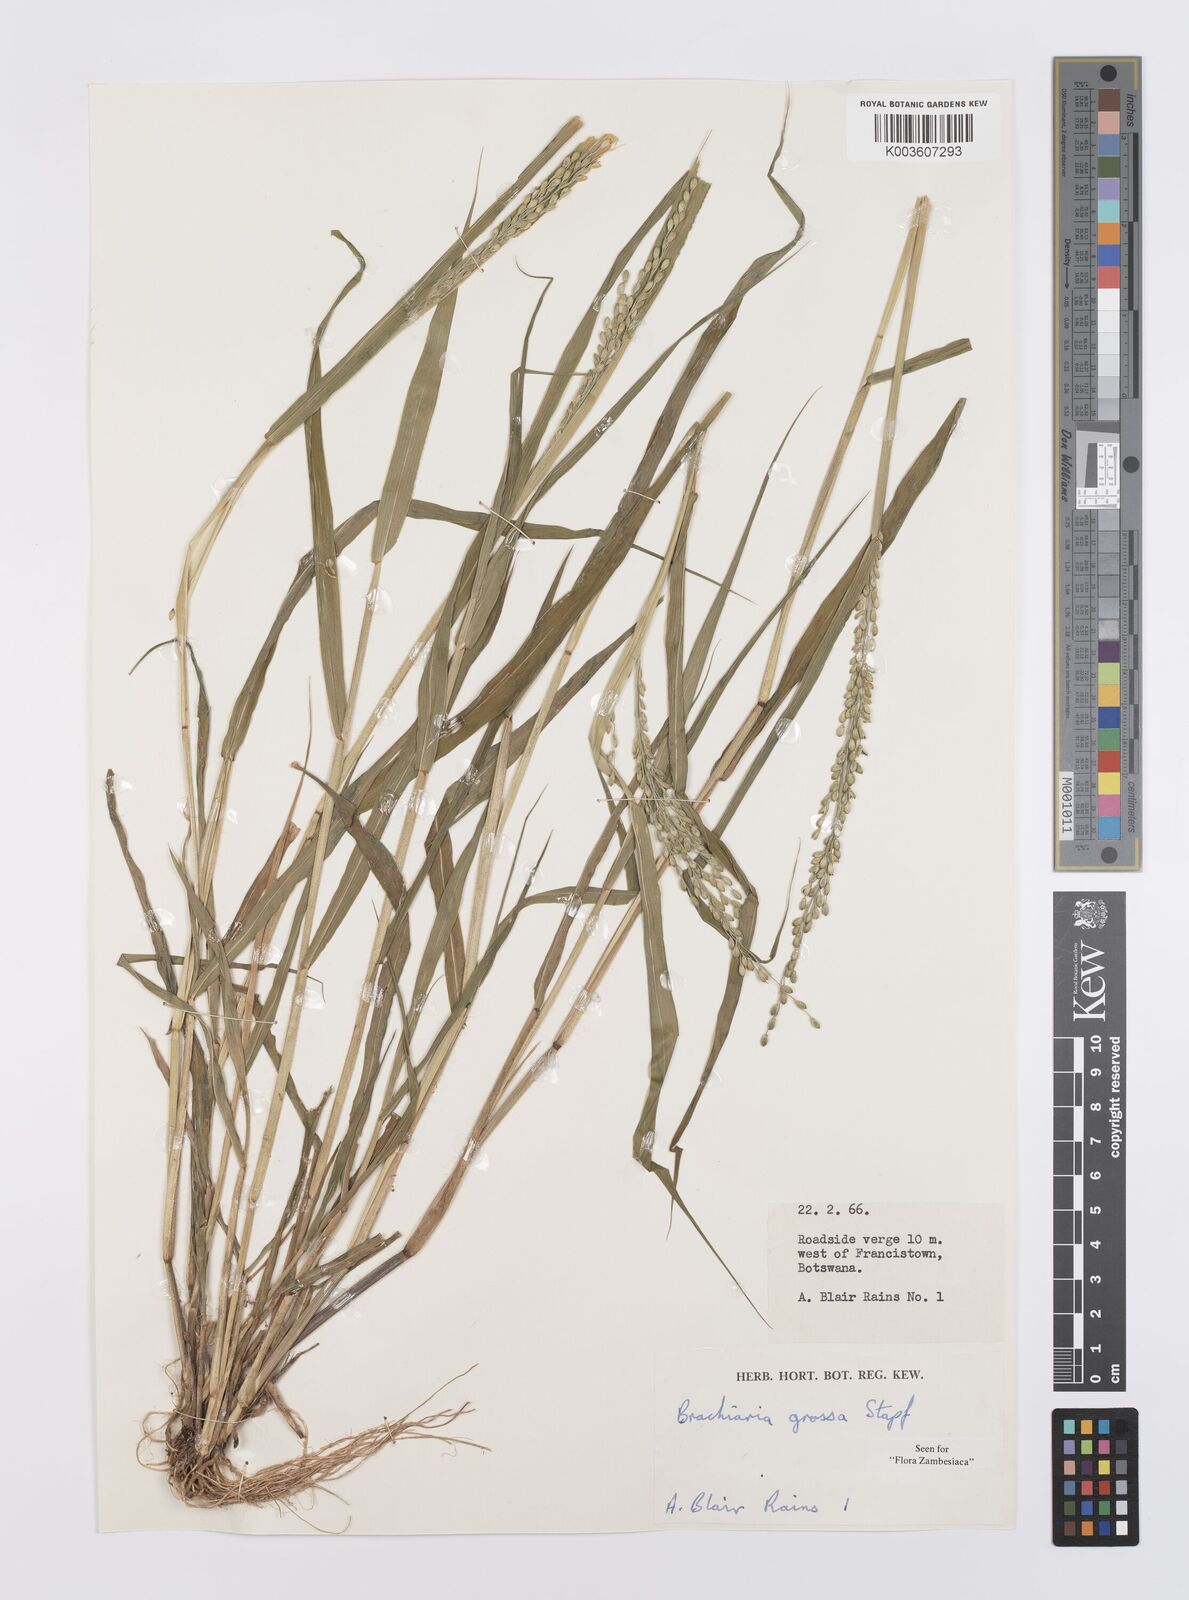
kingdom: Plantae
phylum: Tracheophyta
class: Liliopsida
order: Poales
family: Poaceae
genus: Urochloa
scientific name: Urochloa Brachiaria grossa
